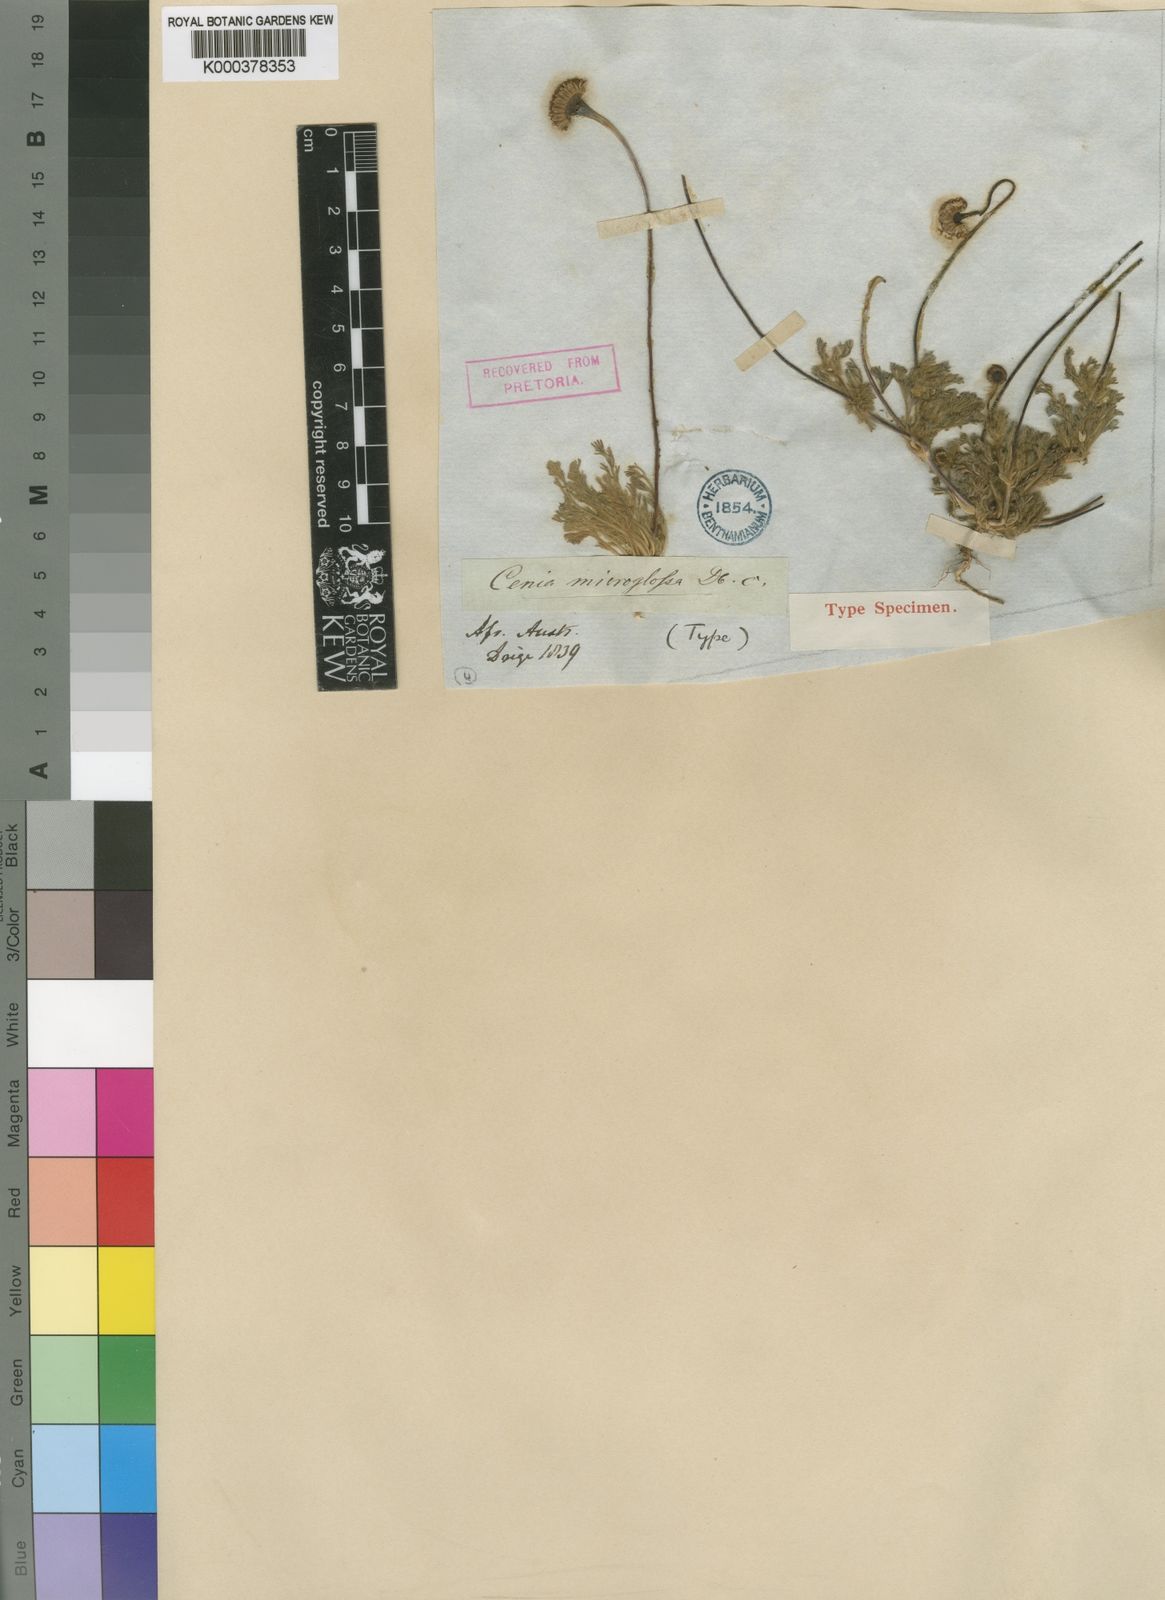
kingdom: Plantae
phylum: Tracheophyta
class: Magnoliopsida
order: Asterales
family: Asteraceae
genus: Cotula
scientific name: Cotula microglossa
